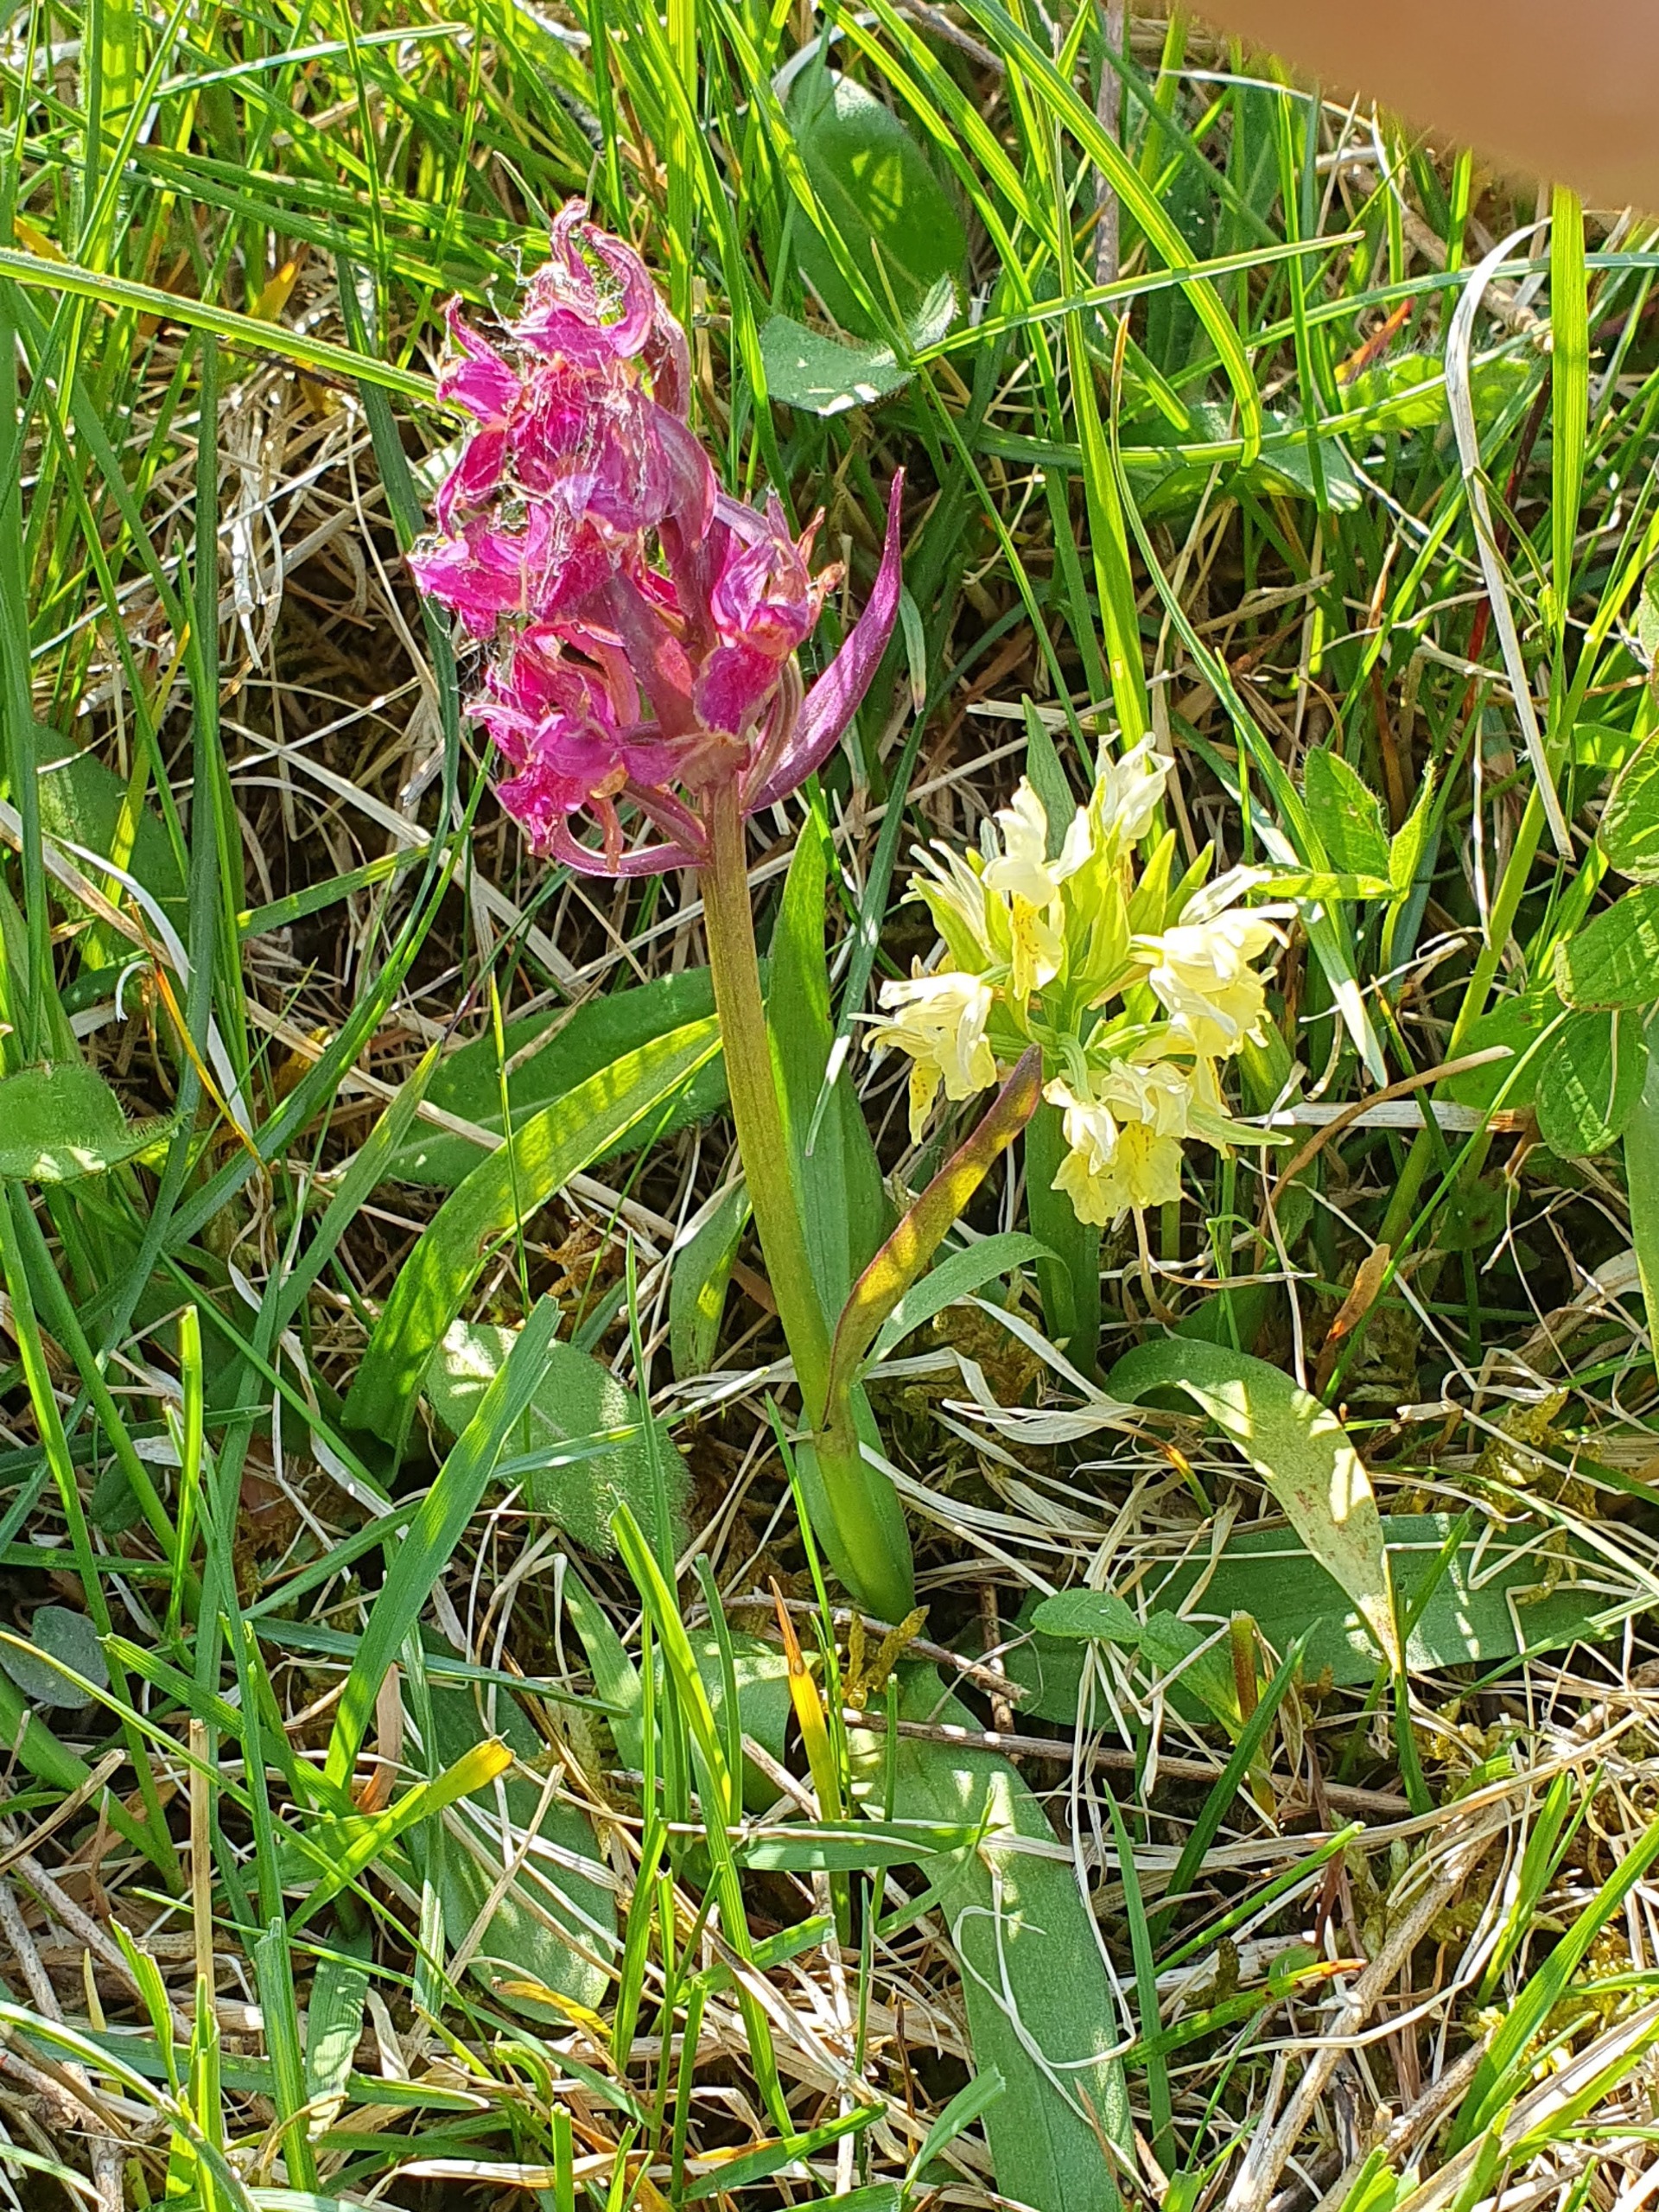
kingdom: Plantae
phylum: Tracheophyta
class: Liliopsida
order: Asparagales
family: Orchidaceae
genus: Dactylorhiza
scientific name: Dactylorhiza sambucina
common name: Hylde-gøgeurt
